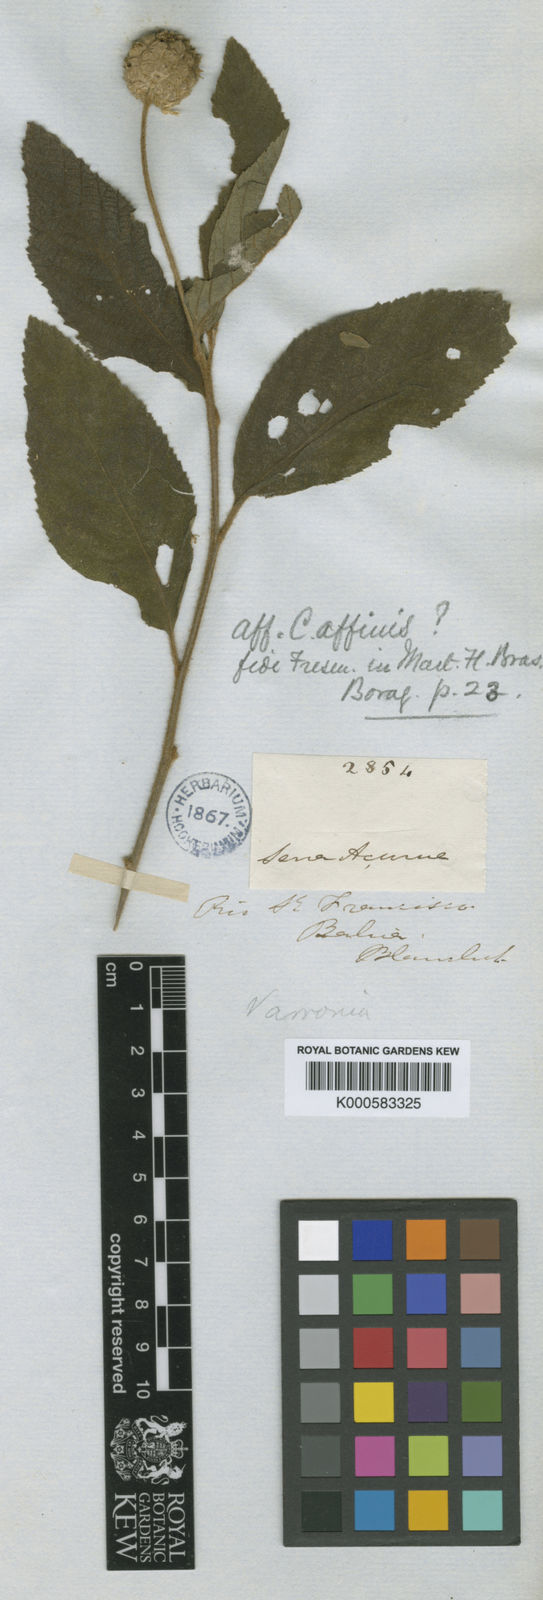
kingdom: Plantae
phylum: Tracheophyta
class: Magnoliopsida
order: Boraginales
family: Cordiaceae
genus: Varronia
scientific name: Varronia leucocephala
